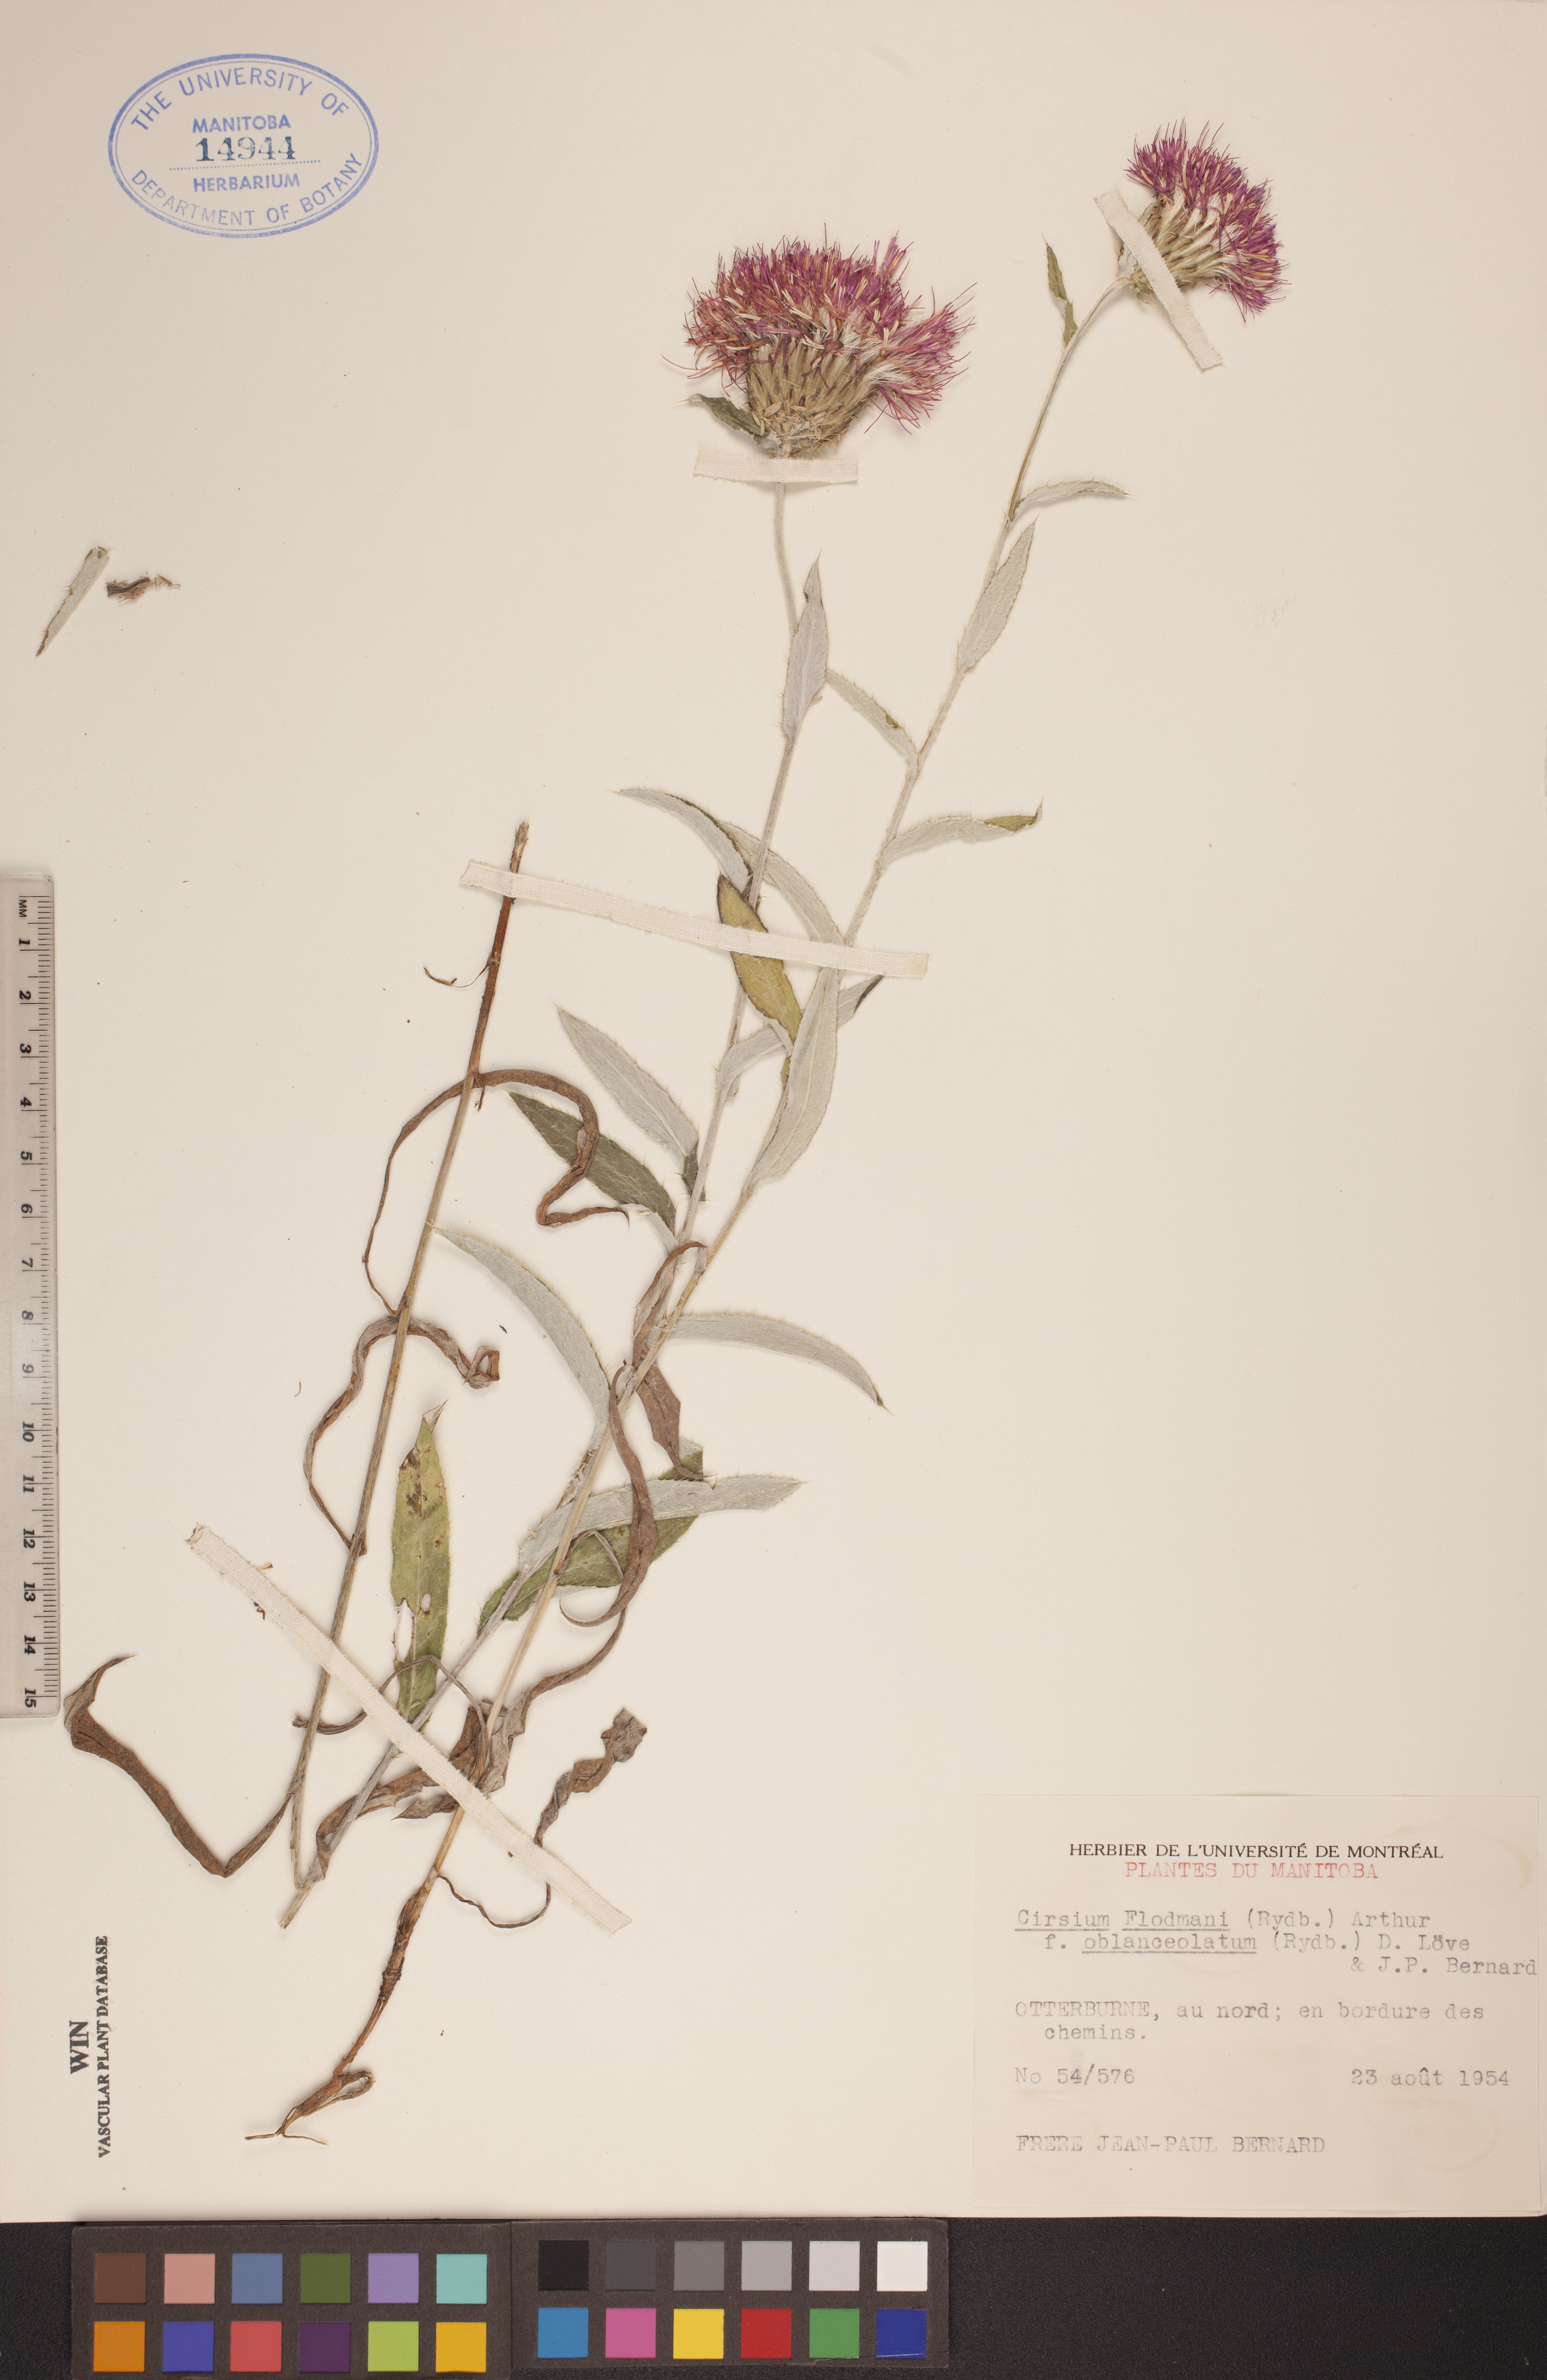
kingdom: Plantae
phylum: Tracheophyta
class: Magnoliopsida
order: Asterales
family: Asteraceae
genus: Cirsium
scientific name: Cirsium flodmanii
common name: Flodman's thistle
